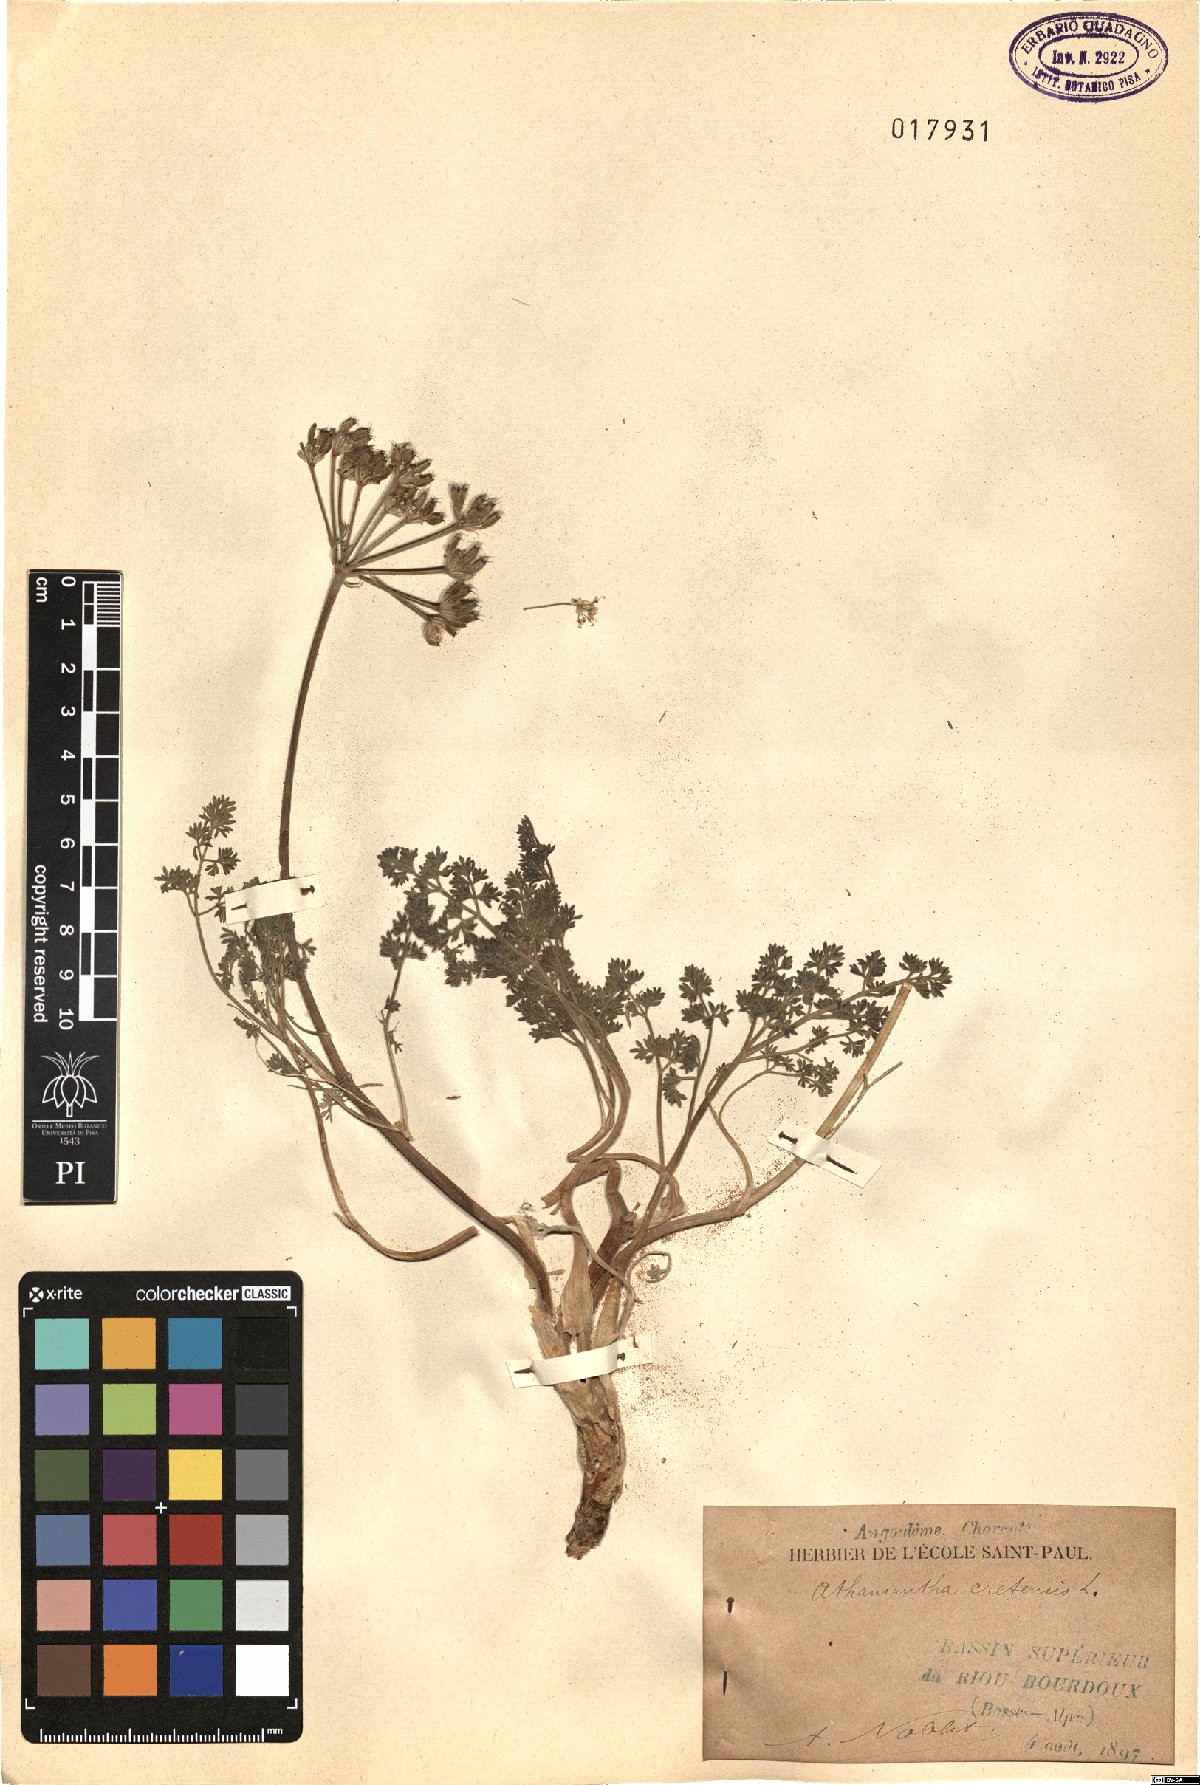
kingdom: Plantae
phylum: Tracheophyta
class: Magnoliopsida
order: Apiales
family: Apiaceae
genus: Athamanta
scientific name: Athamanta cretensis
